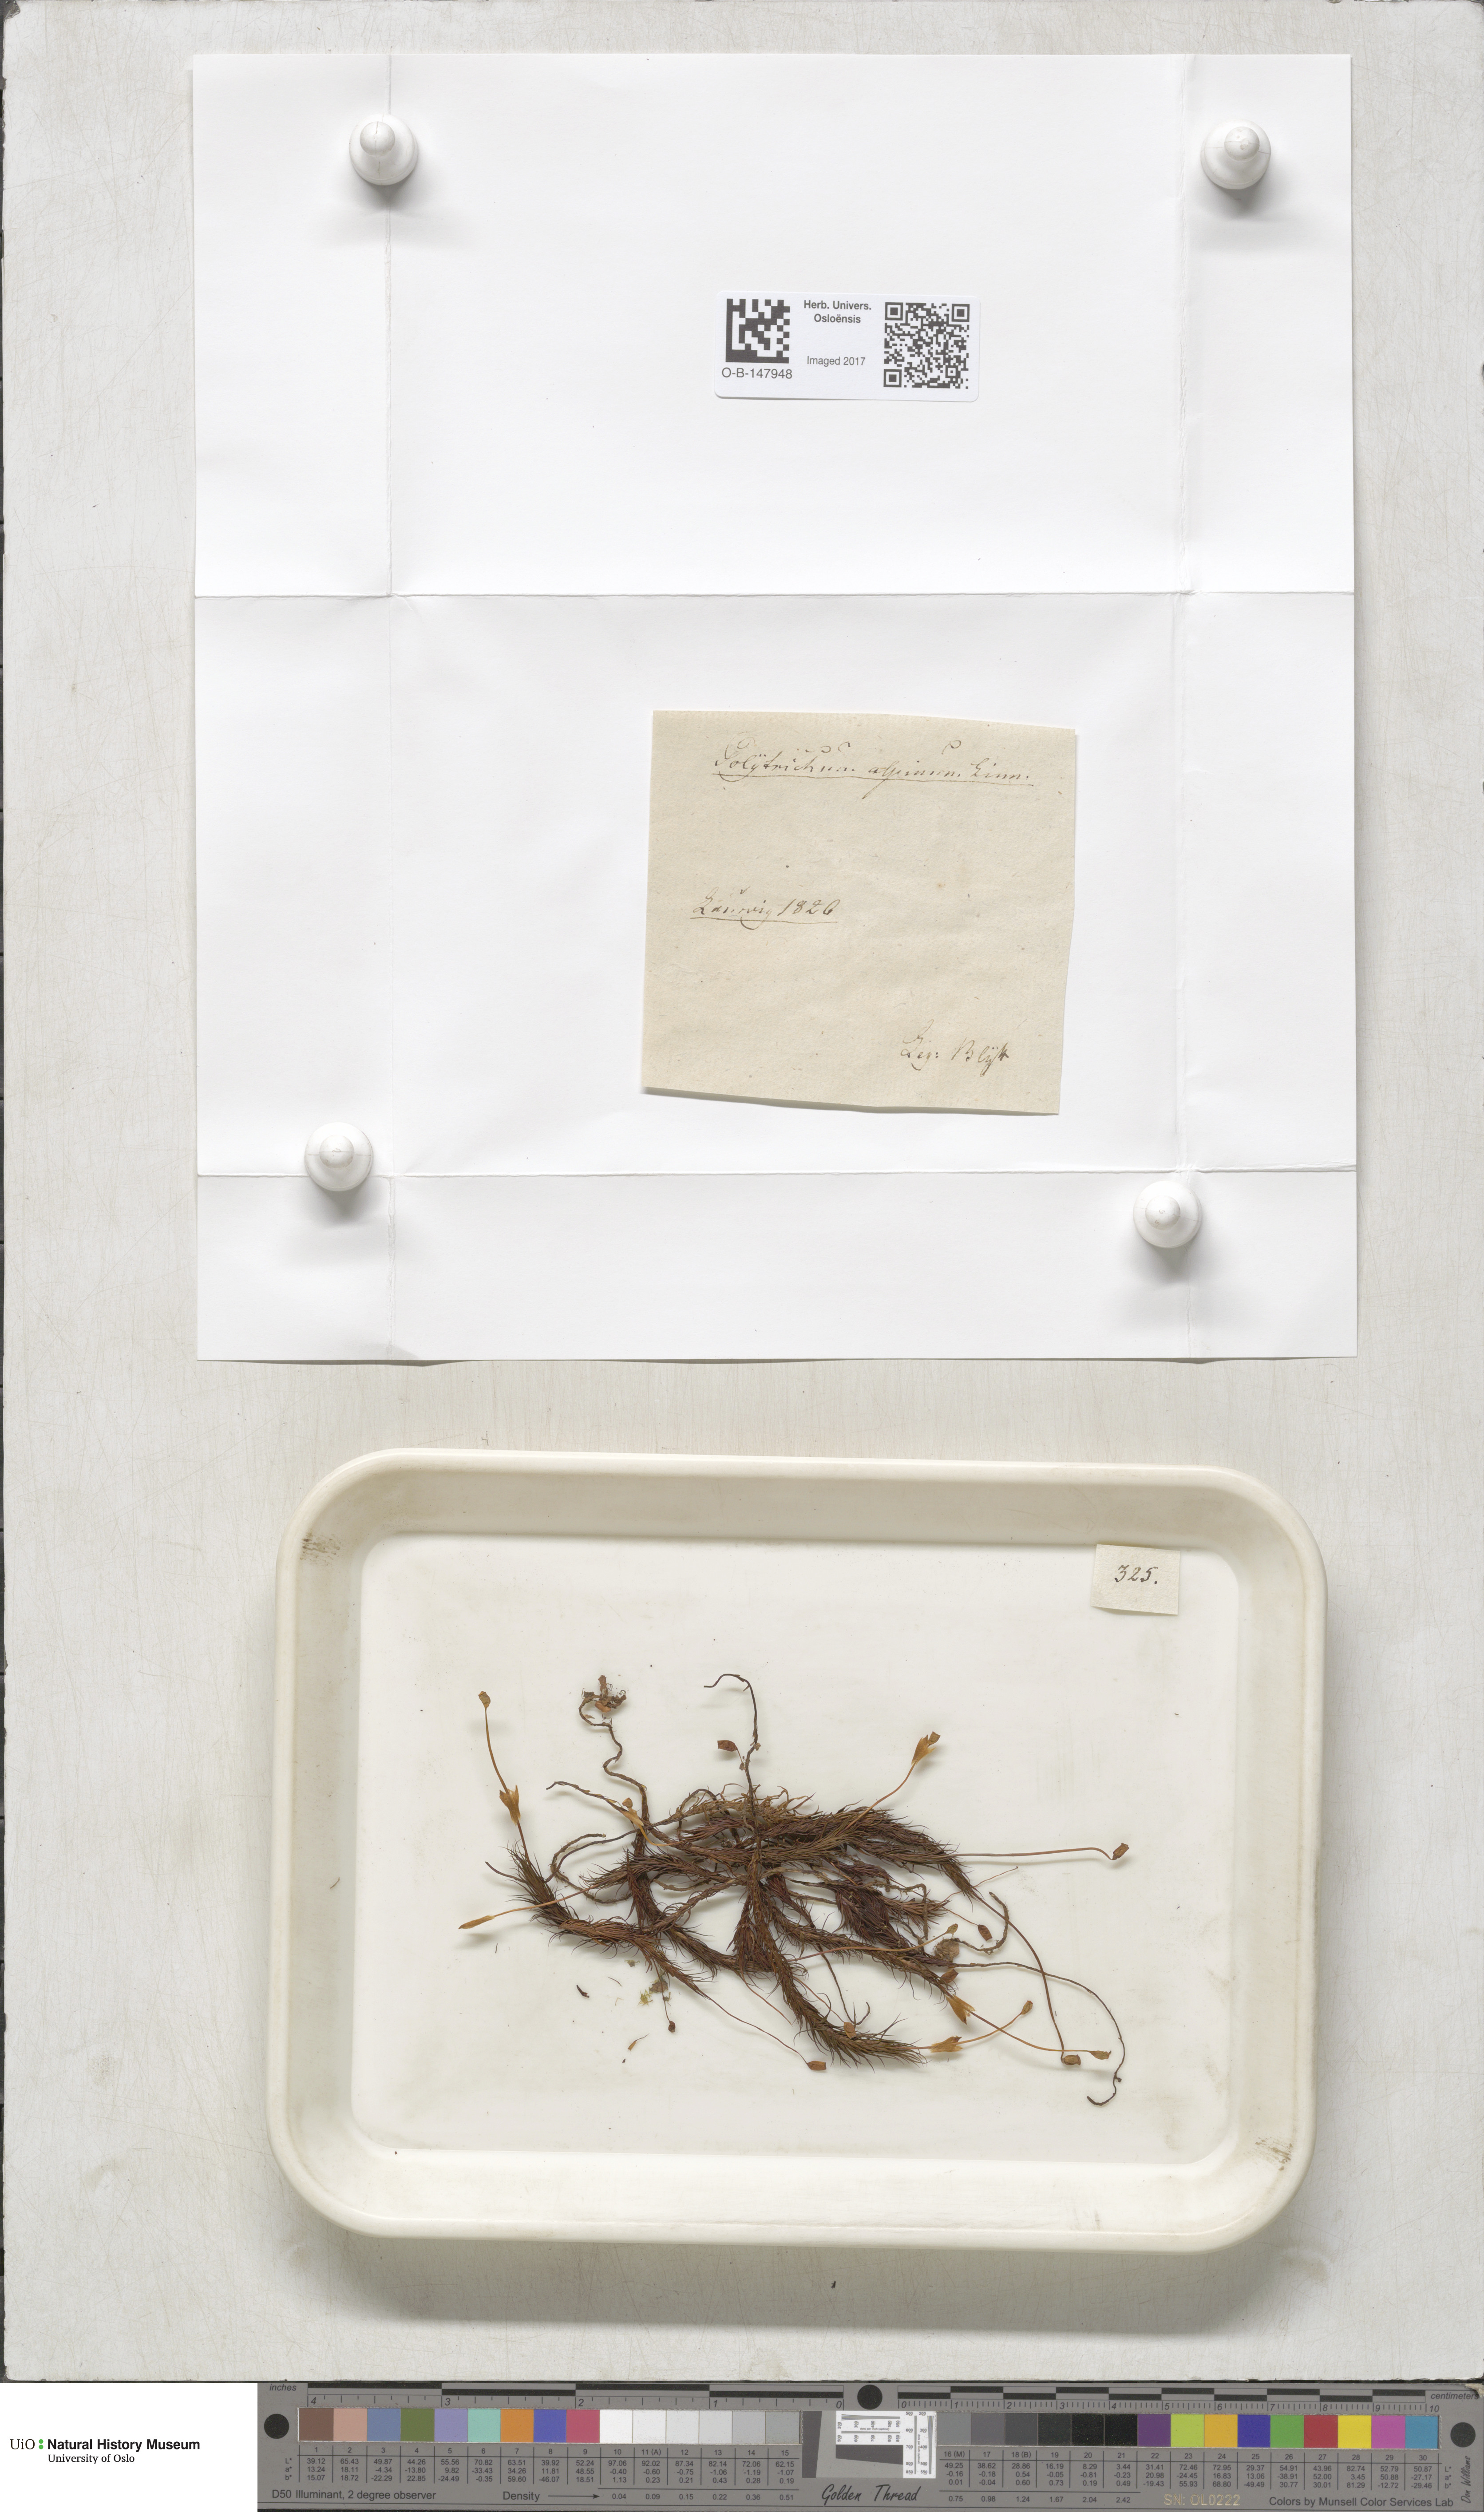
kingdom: Plantae
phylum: Bryophyta
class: Polytrichopsida
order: Polytrichales
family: Polytrichaceae
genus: Polytrichastrum
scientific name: Polytrichastrum alpinum
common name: Alpine haircap
